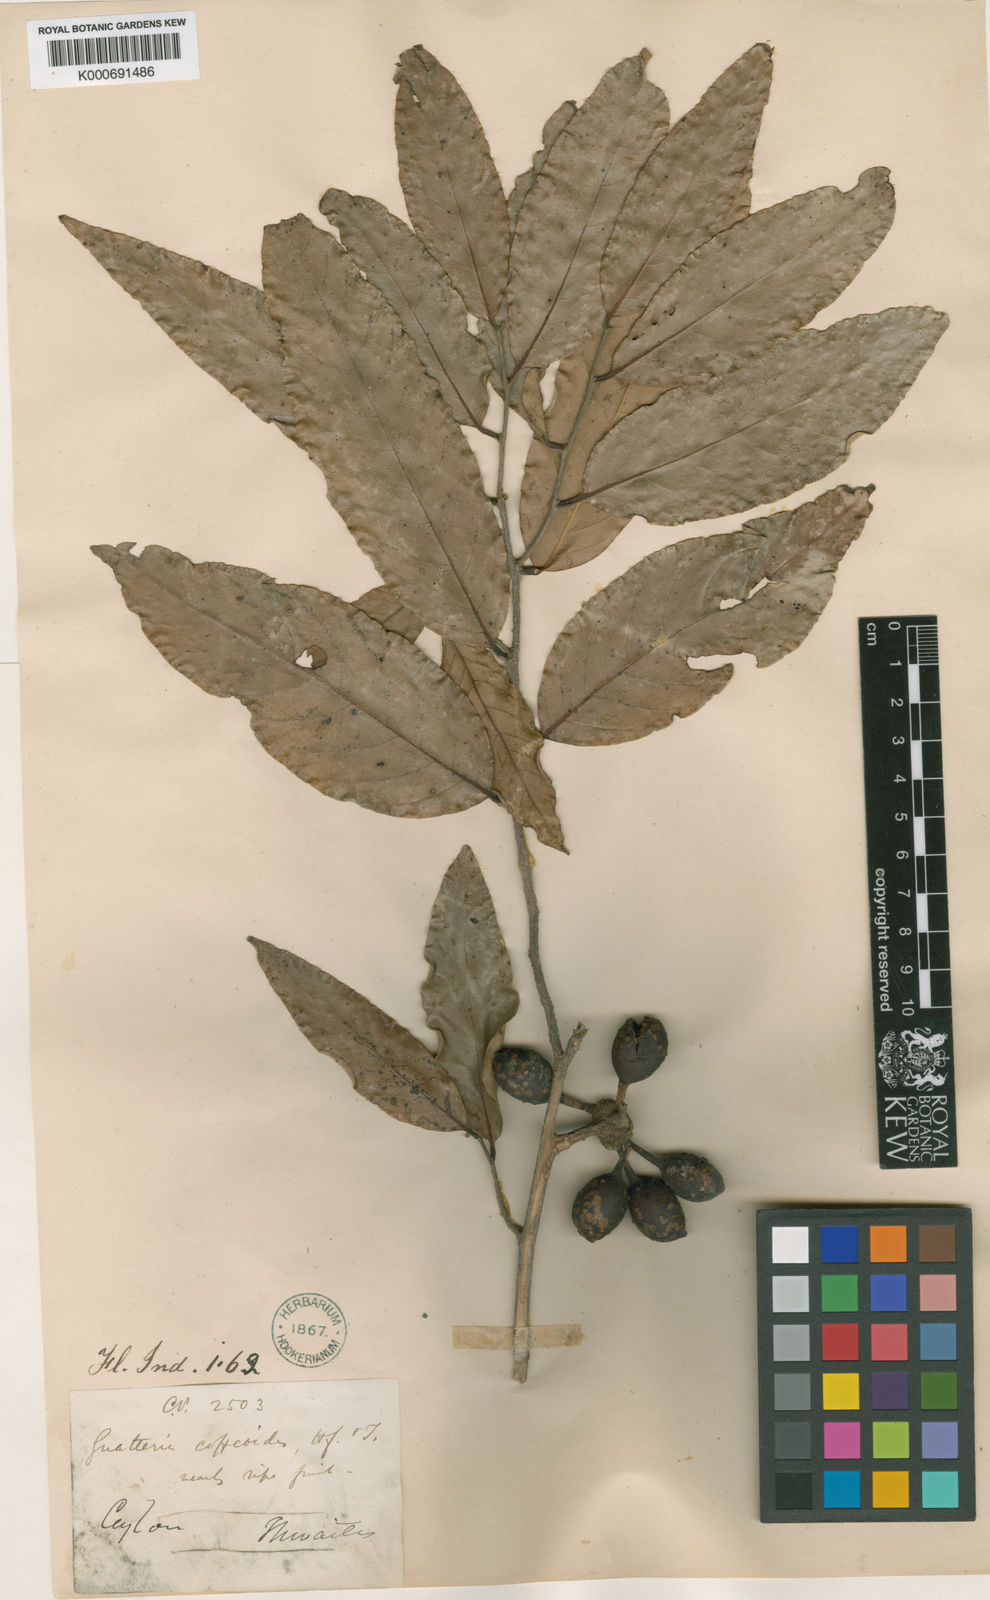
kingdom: Plantae
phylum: Tracheophyta
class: Magnoliopsida
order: Magnoliales
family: Annonaceae
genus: Monoon
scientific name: Monoon coffeoides
